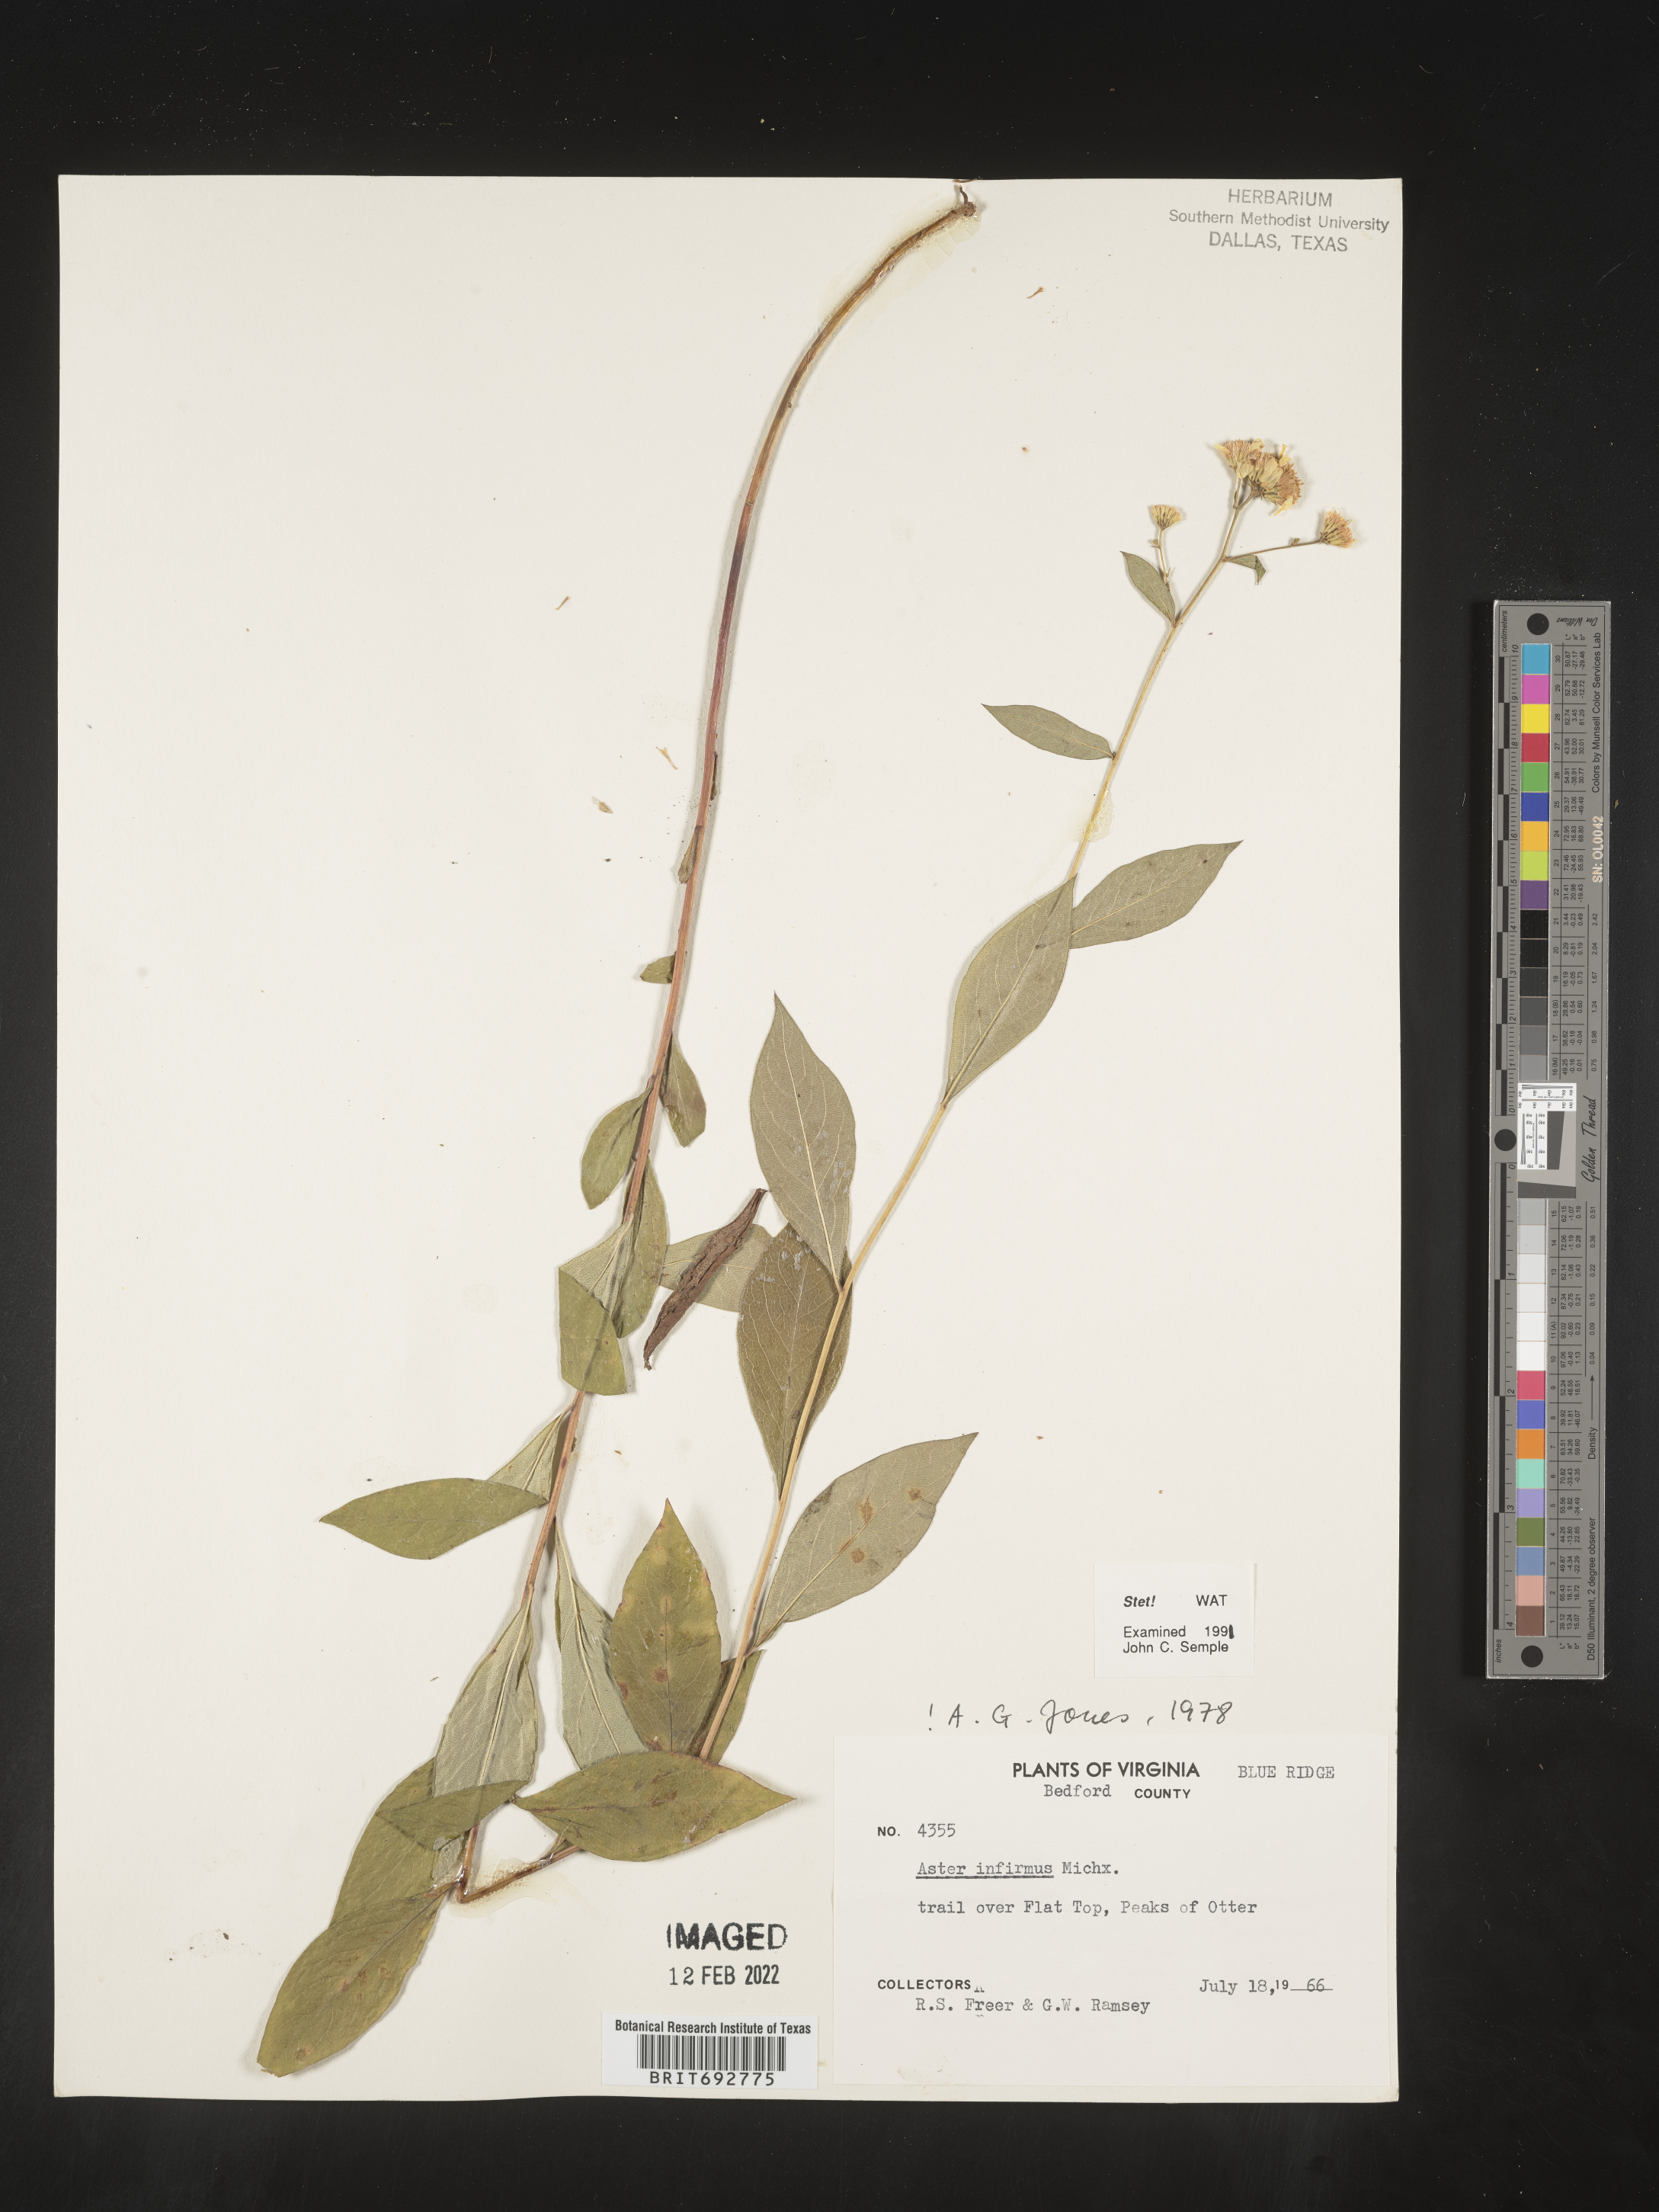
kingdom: Plantae
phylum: Tracheophyta
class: Magnoliopsida
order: Asterales
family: Asteraceae
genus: Doellingeria
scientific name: Doellingeria infirma
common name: Appalachian flat-top aster
